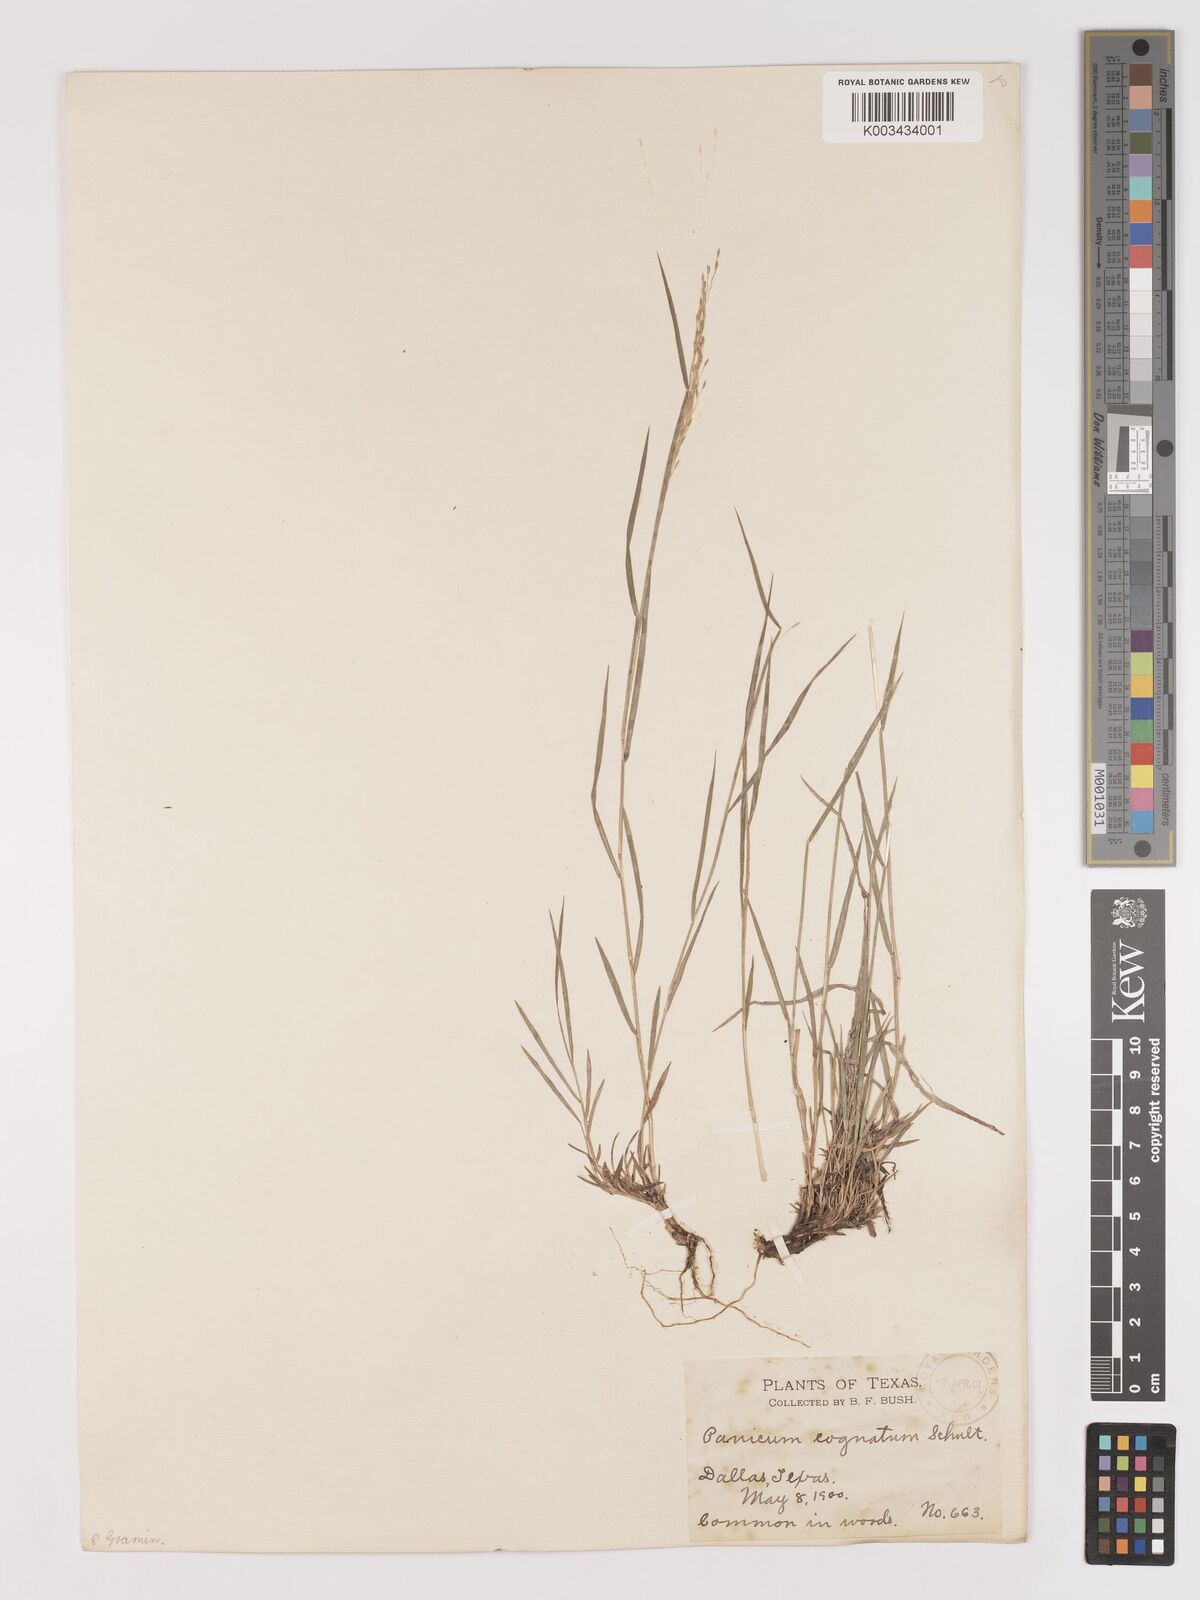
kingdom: Plantae
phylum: Tracheophyta
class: Liliopsida
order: Poales
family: Poaceae
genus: Digitaria
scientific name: Digitaria
